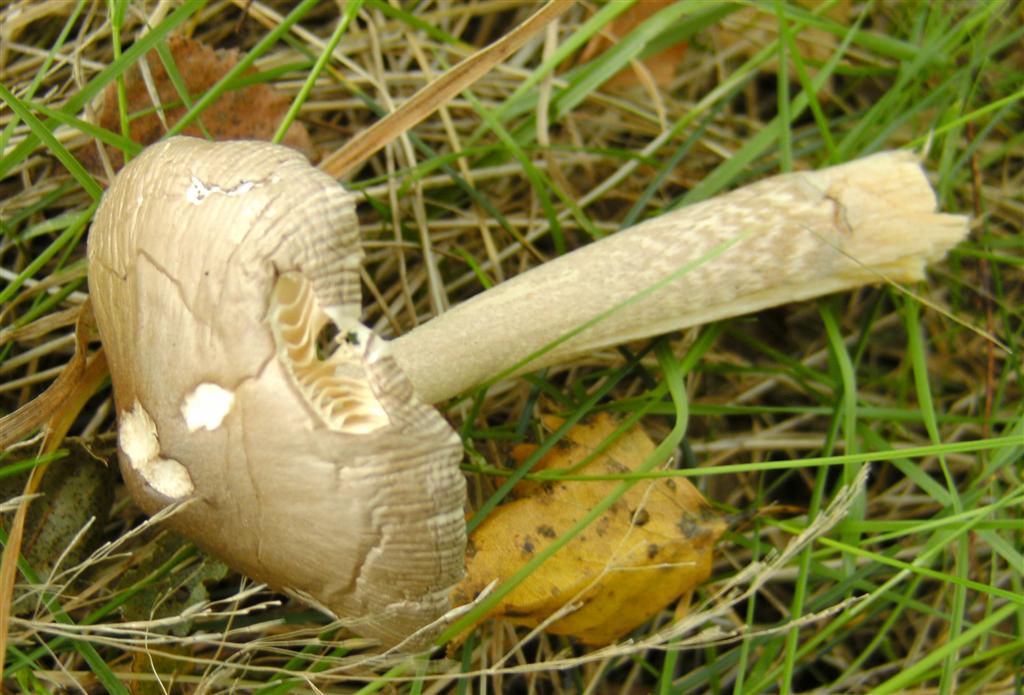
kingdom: Fungi
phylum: Basidiomycota
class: Agaricomycetes
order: Agaricales
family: Amanitaceae
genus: Amanita
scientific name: Amanita submembranacea
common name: gråspættet kam-fluesvamp
